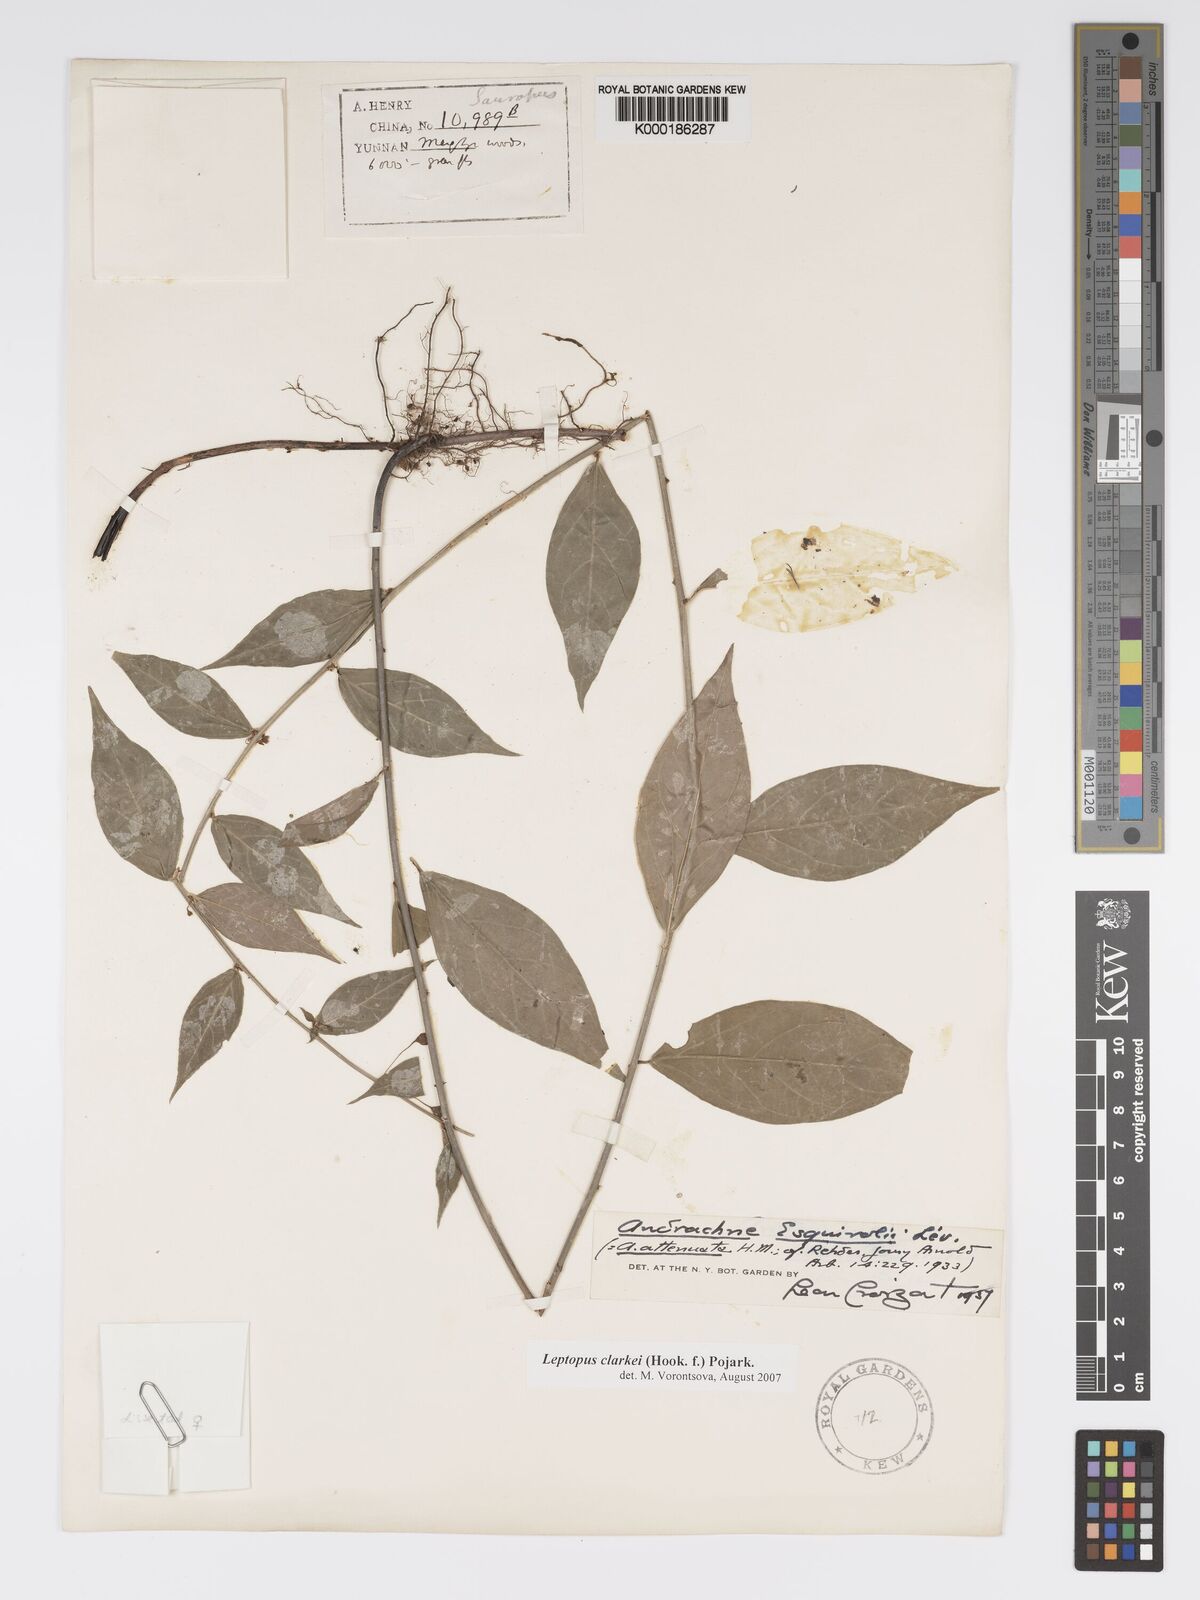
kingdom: Plantae
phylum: Tracheophyta
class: Magnoliopsida
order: Malpighiales
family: Phyllanthaceae
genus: Leptopus
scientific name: Leptopus clarkei
